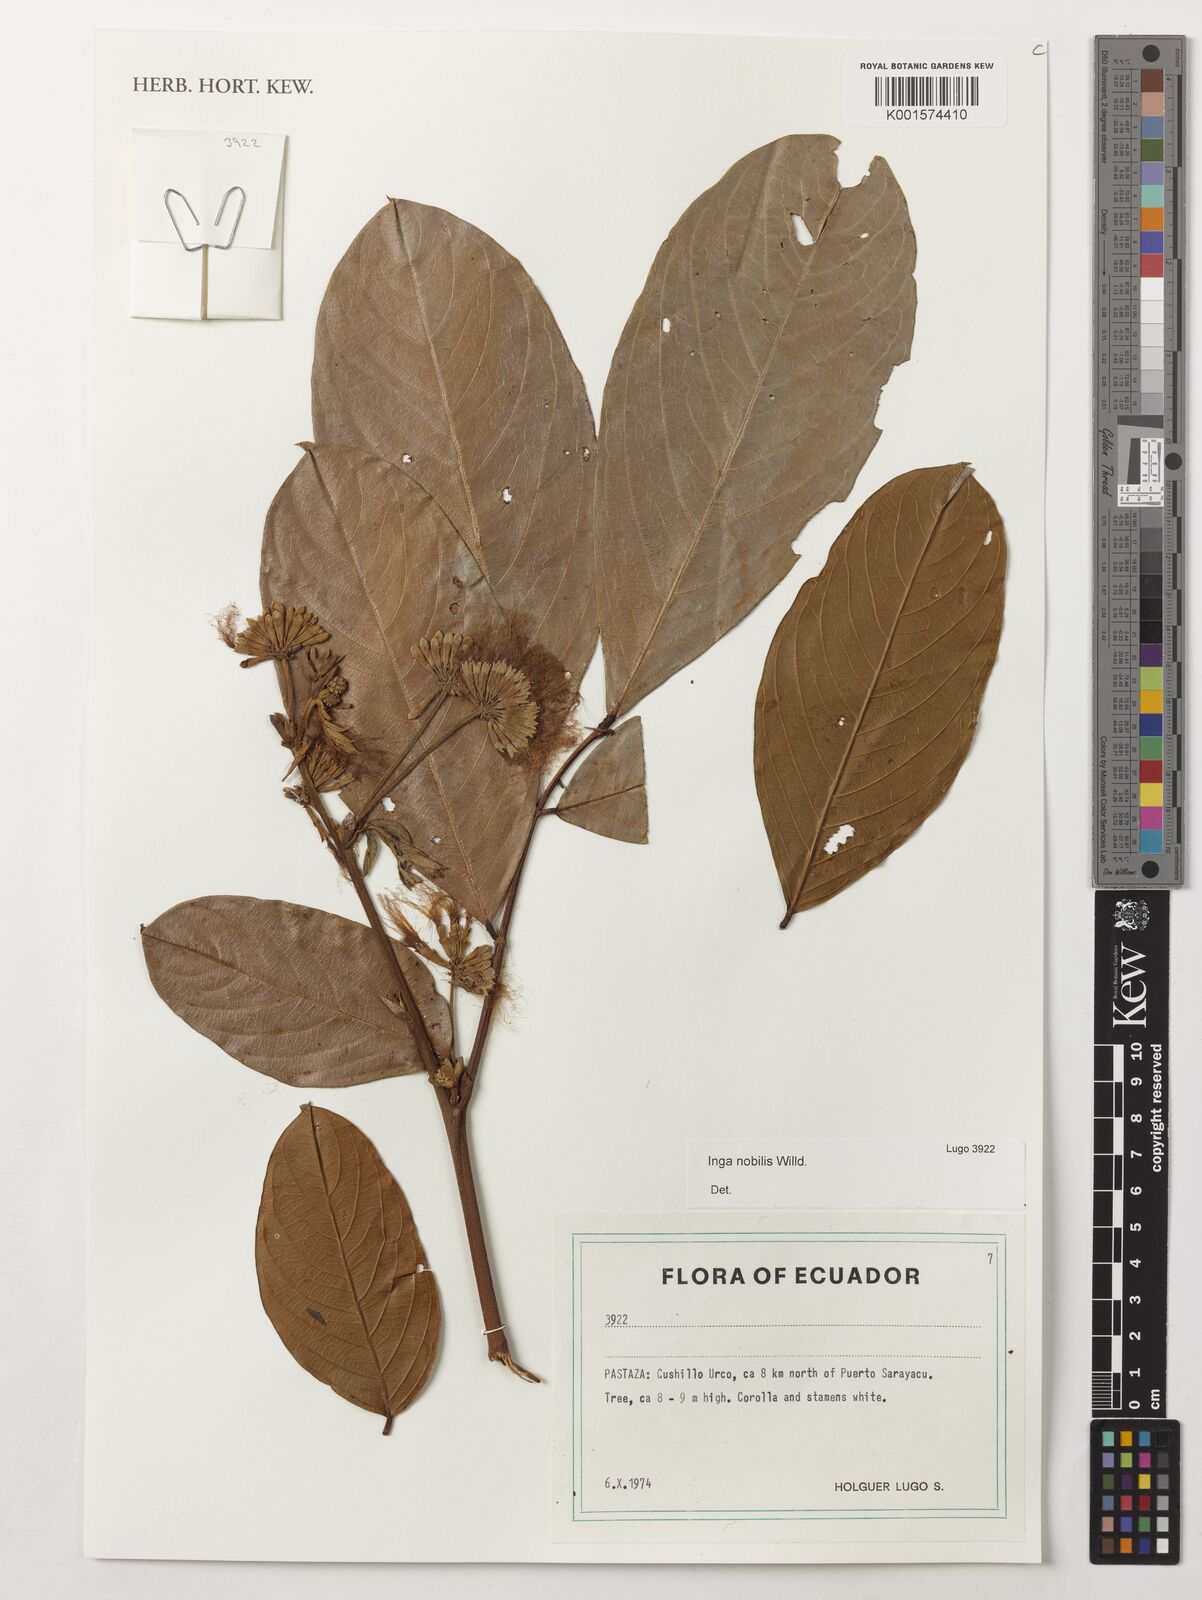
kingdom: Plantae
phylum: Tracheophyta
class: Magnoliopsida
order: Fabales
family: Fabaceae
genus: Inga
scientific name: Inga nobilis
